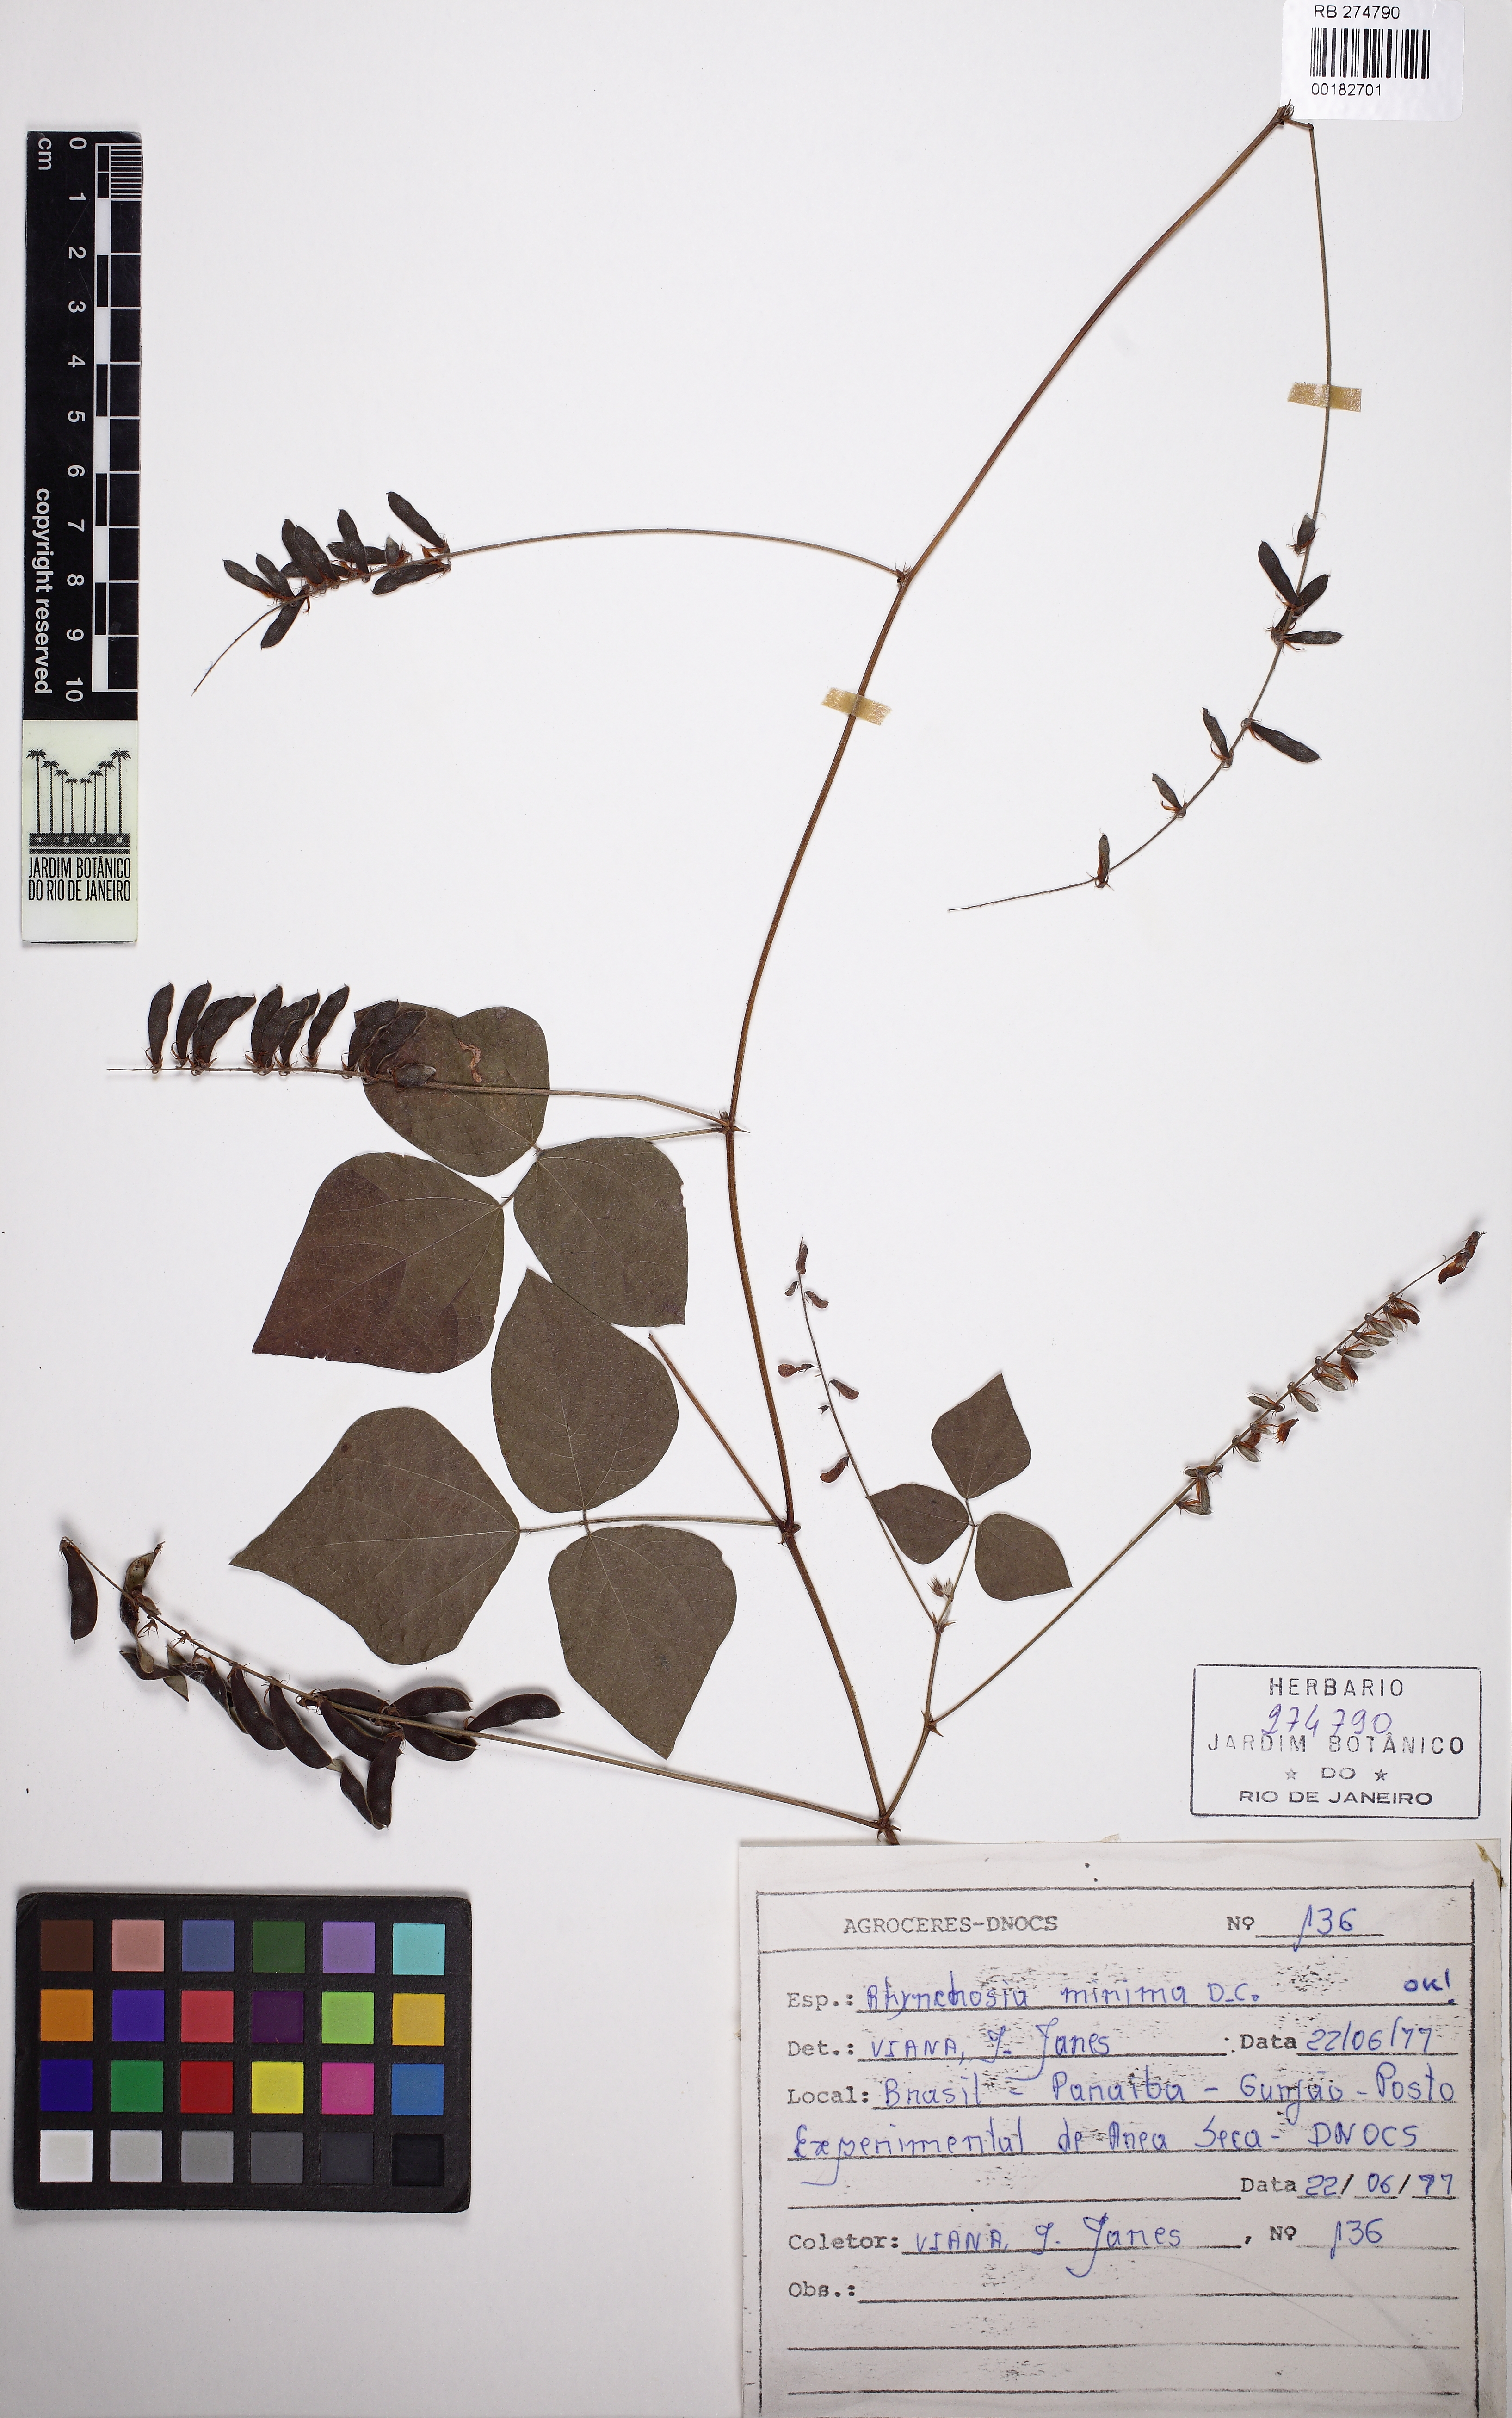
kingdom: Plantae
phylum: Tracheophyta
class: Magnoliopsida
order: Fabales
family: Fabaceae
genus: Rhynchosia
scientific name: Rhynchosia minima
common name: Least snoutbean
